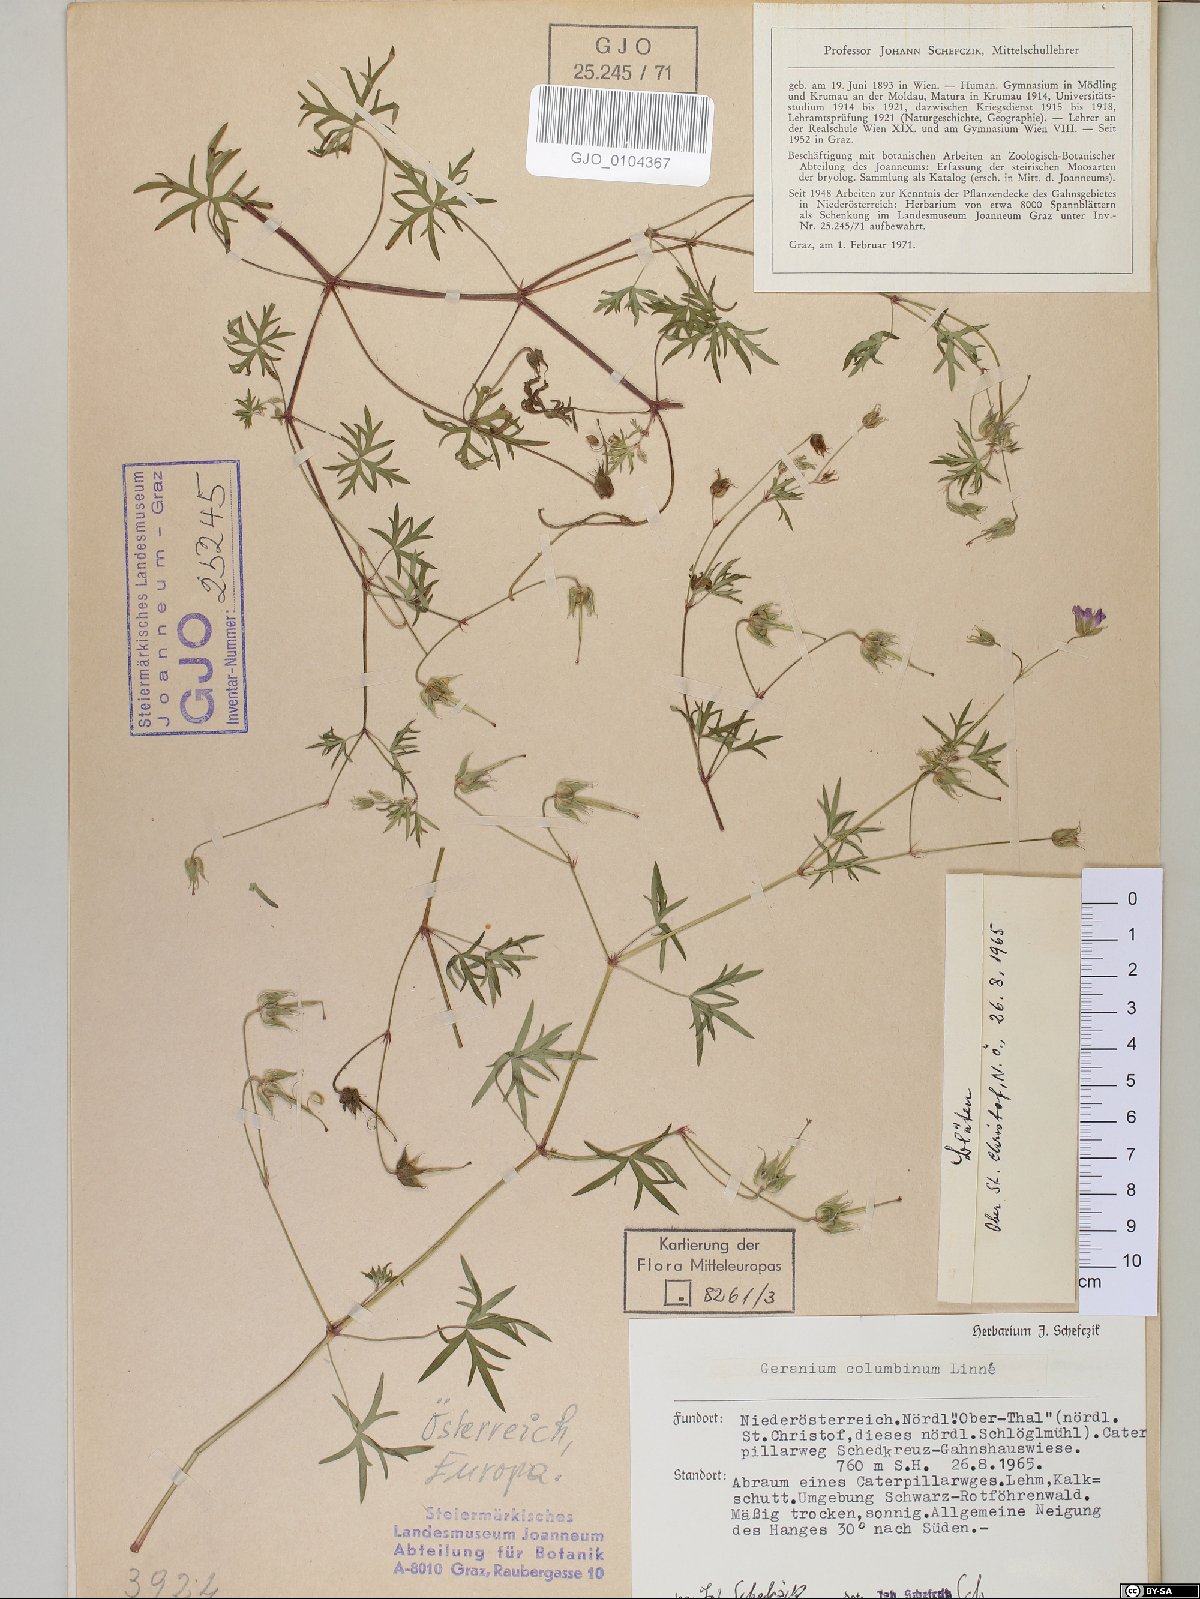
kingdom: Plantae
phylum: Tracheophyta
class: Magnoliopsida
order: Geraniales
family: Geraniaceae
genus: Geranium
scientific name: Geranium columbinum
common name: Long-stalked crane's-bill
